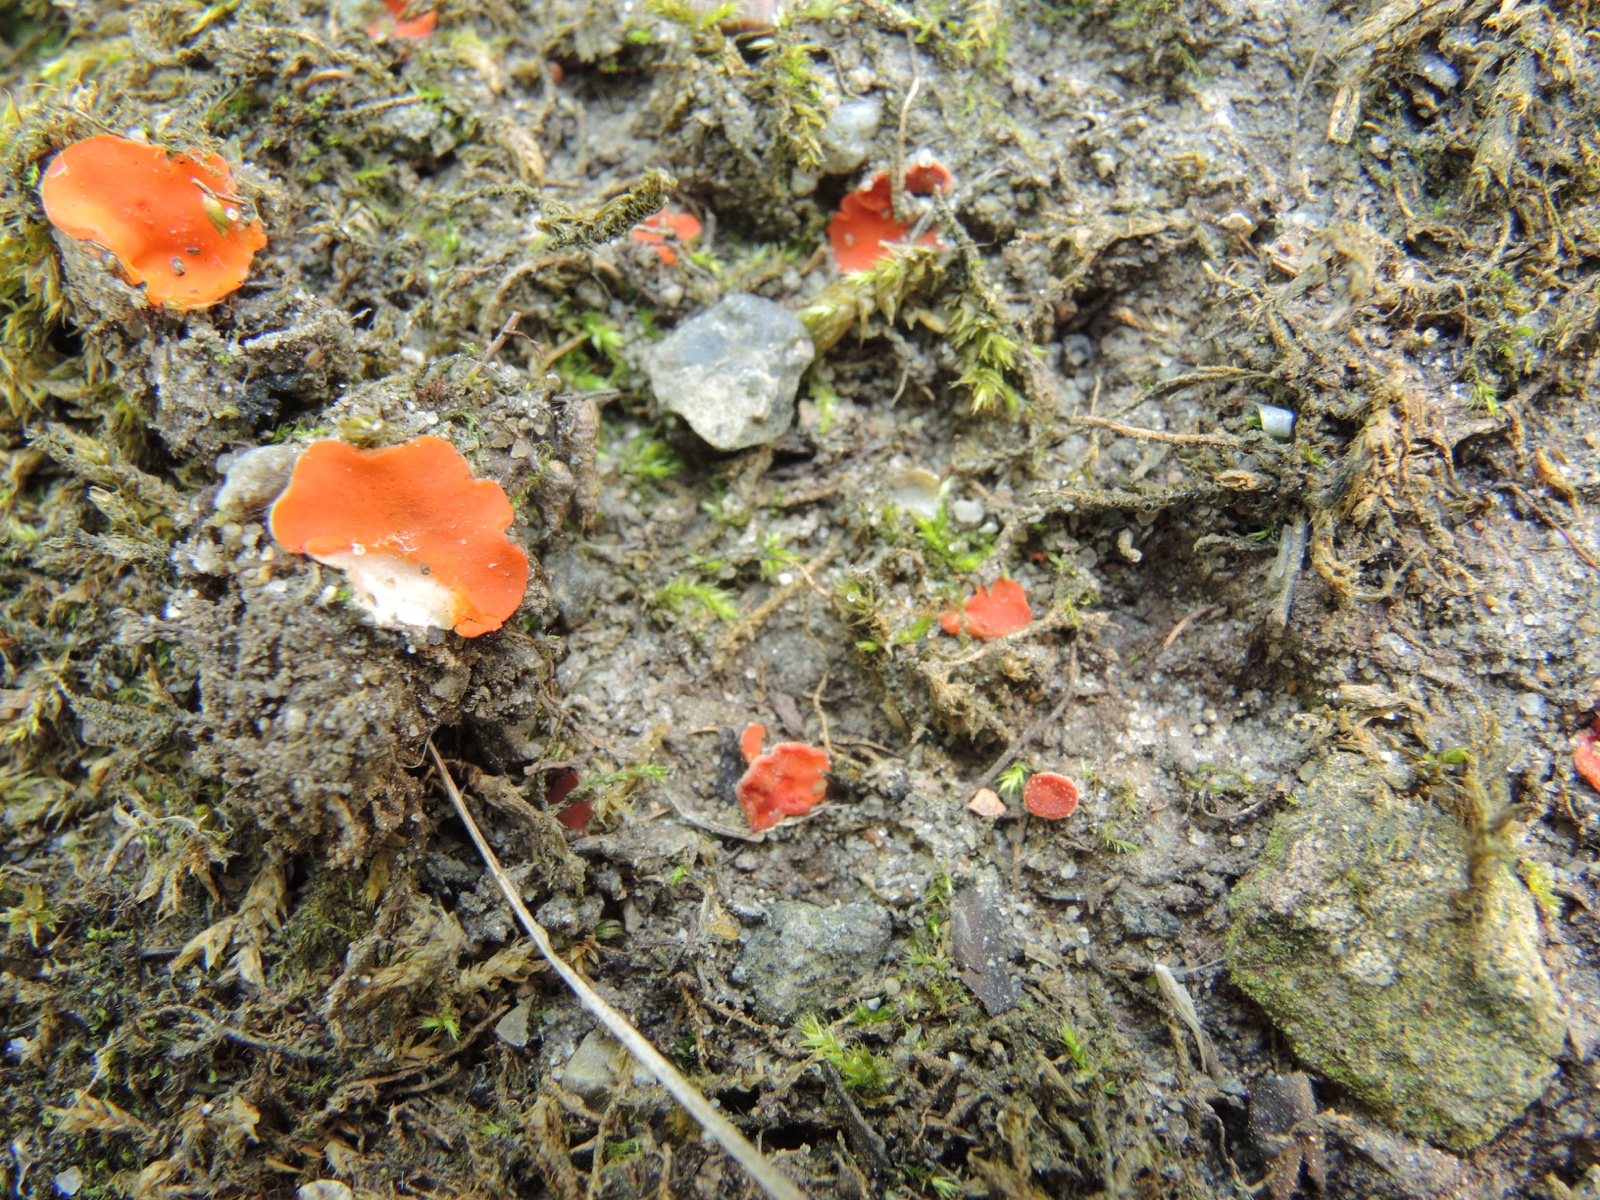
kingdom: Fungi
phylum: Ascomycota
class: Pezizomycetes
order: Pezizales
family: Pulvinulaceae
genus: Pulvinula
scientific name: Pulvinula miltina
